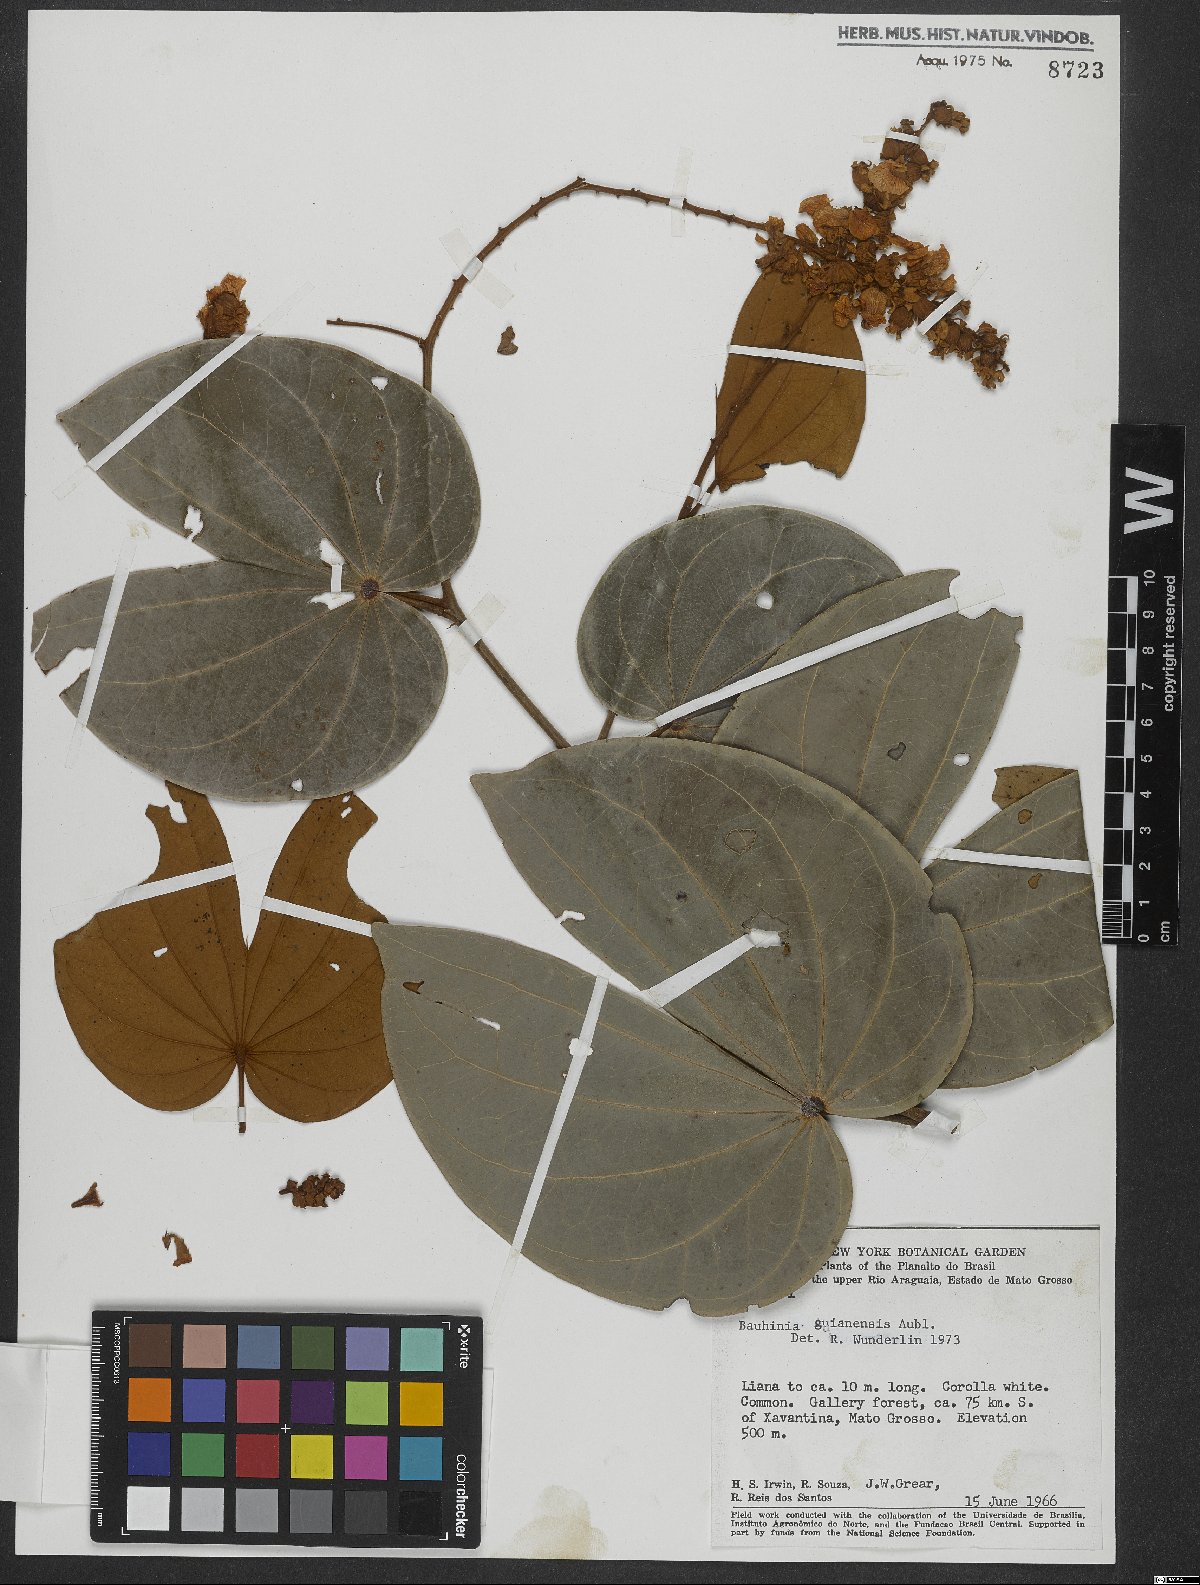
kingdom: Plantae
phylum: Tracheophyta
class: Magnoliopsida
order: Fabales
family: Fabaceae
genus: Schnella
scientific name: Schnella guianensis
